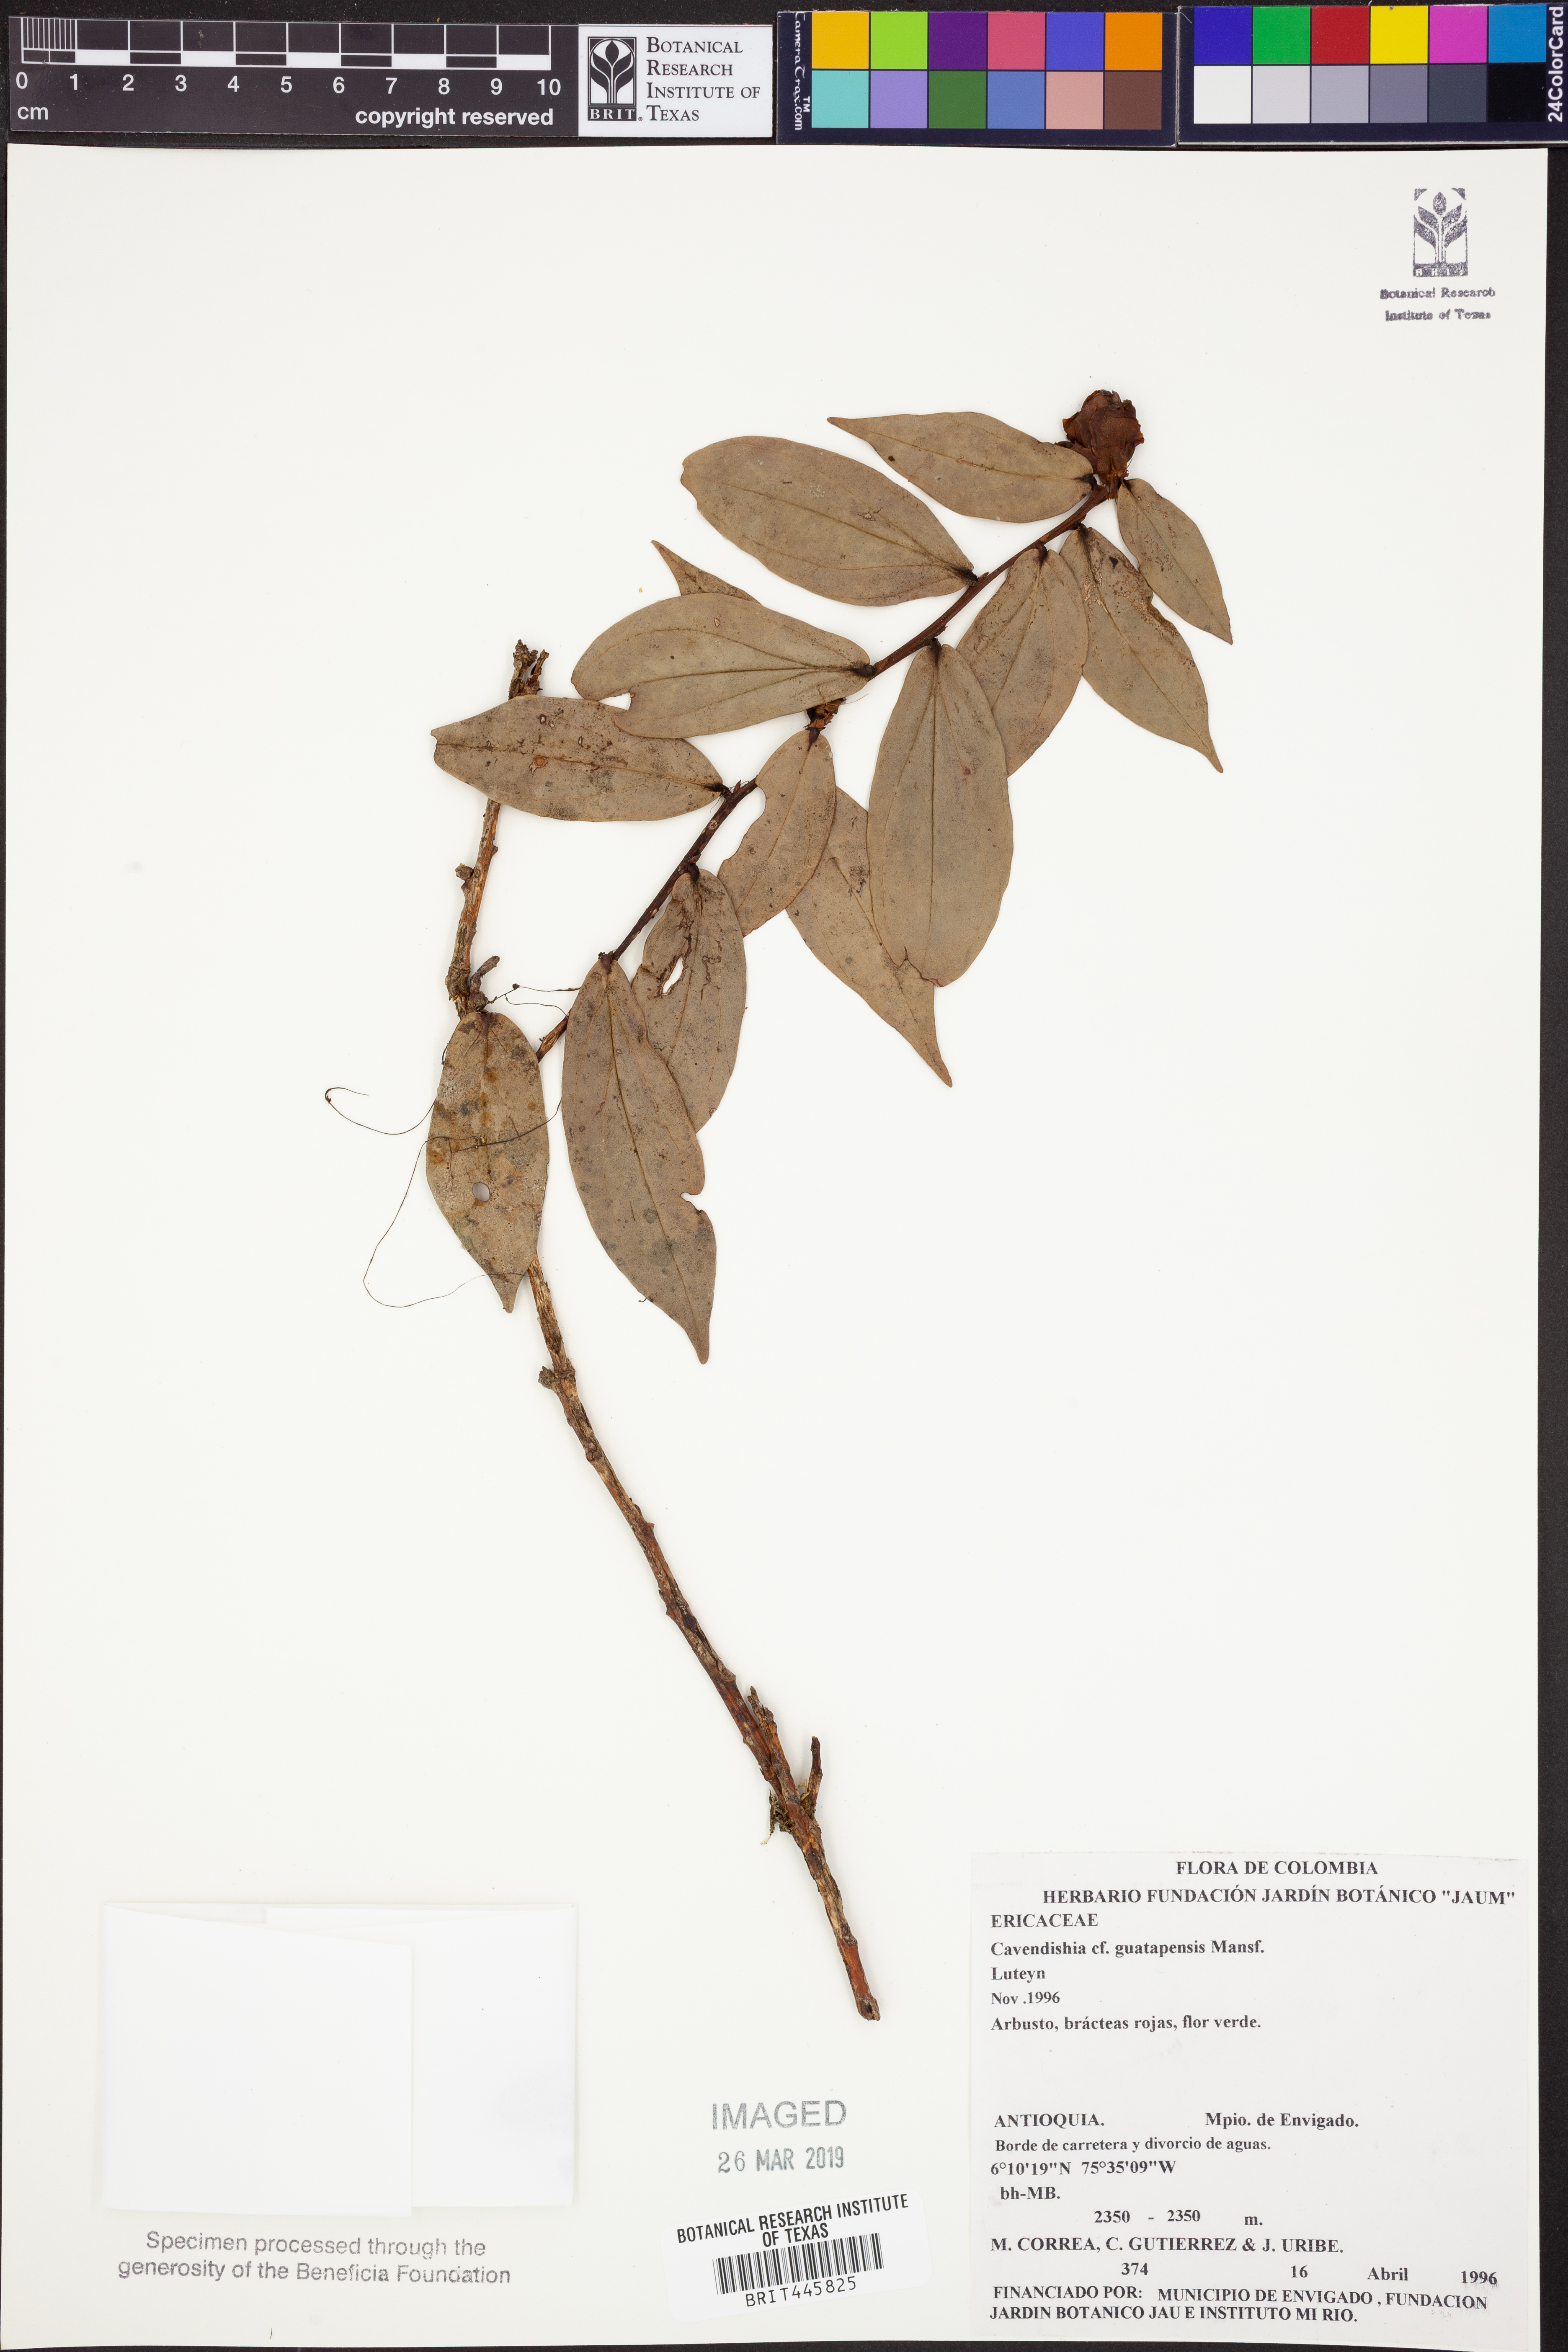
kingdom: Plantae
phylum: Tracheophyta
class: Magnoliopsida
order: Ericales
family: Ericaceae
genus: Cavendishia
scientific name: Cavendishia guatapeensis
